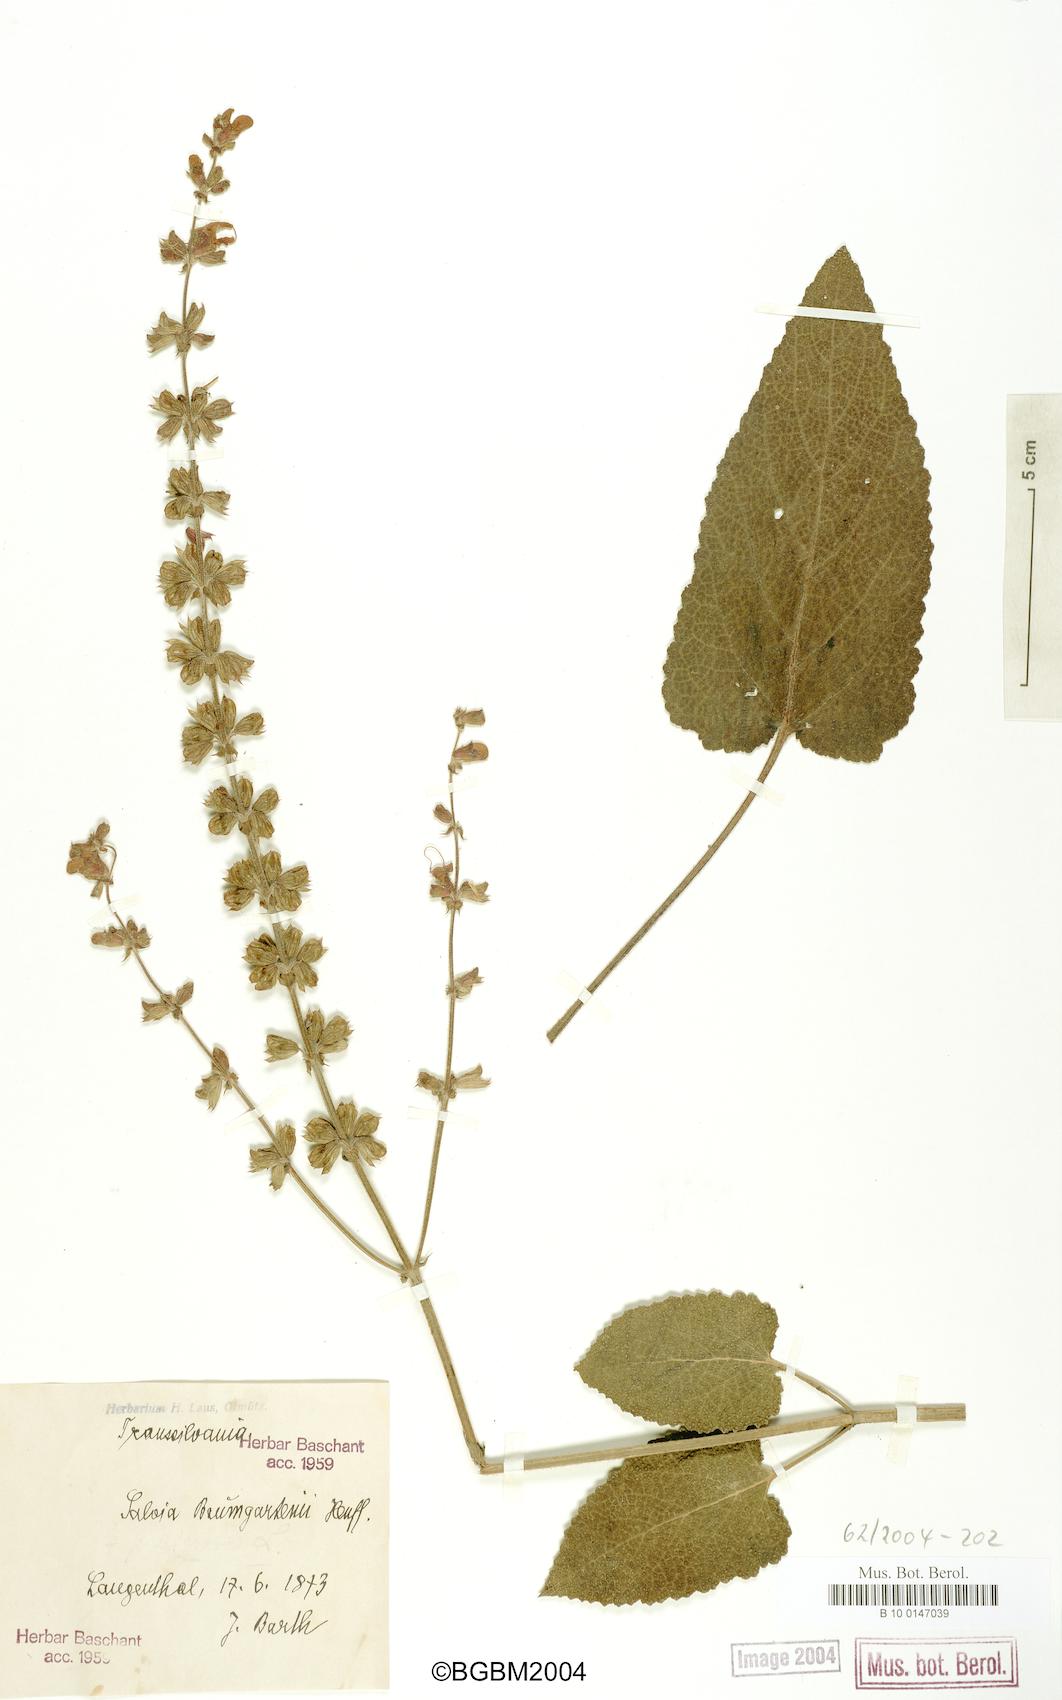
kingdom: Plantae
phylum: Tracheophyta
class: Magnoliopsida
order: Lamiales
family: Lamiaceae
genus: Salvia
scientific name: Salvia transsylvanica
